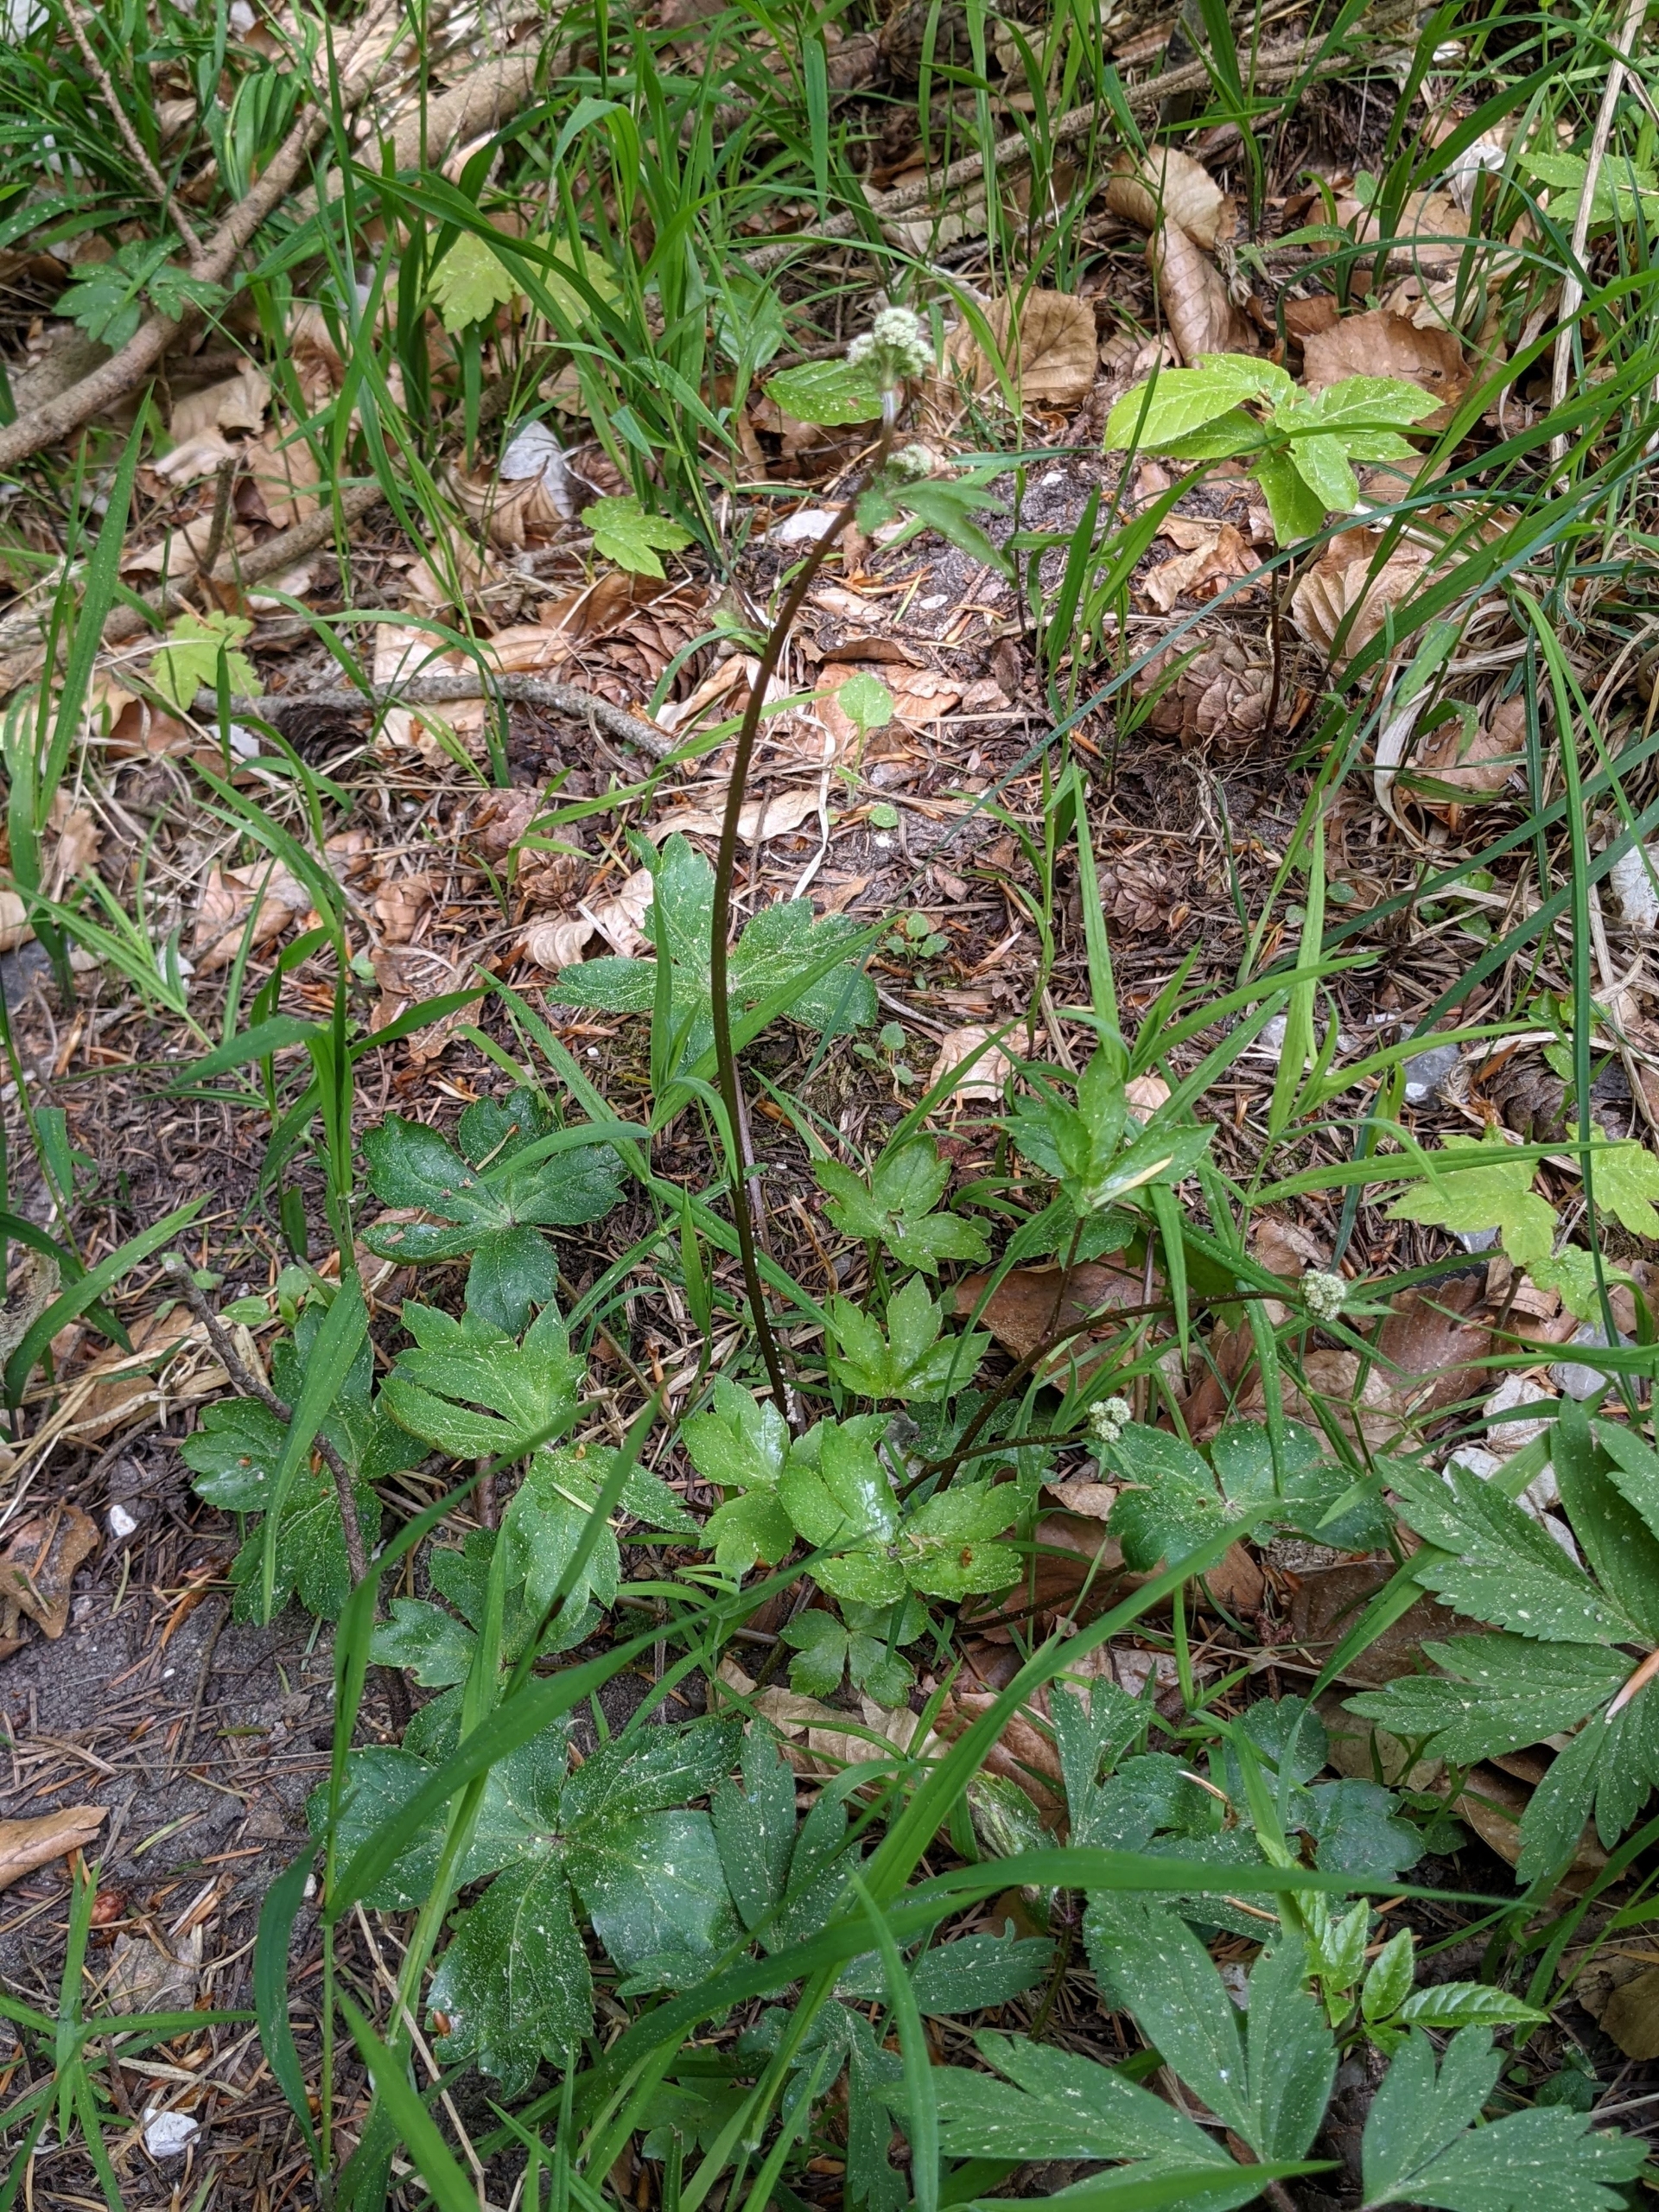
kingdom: Plantae
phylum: Tracheophyta
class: Magnoliopsida
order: Apiales
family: Apiaceae
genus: Sanicula
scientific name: Sanicula europaea
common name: Sanikel
